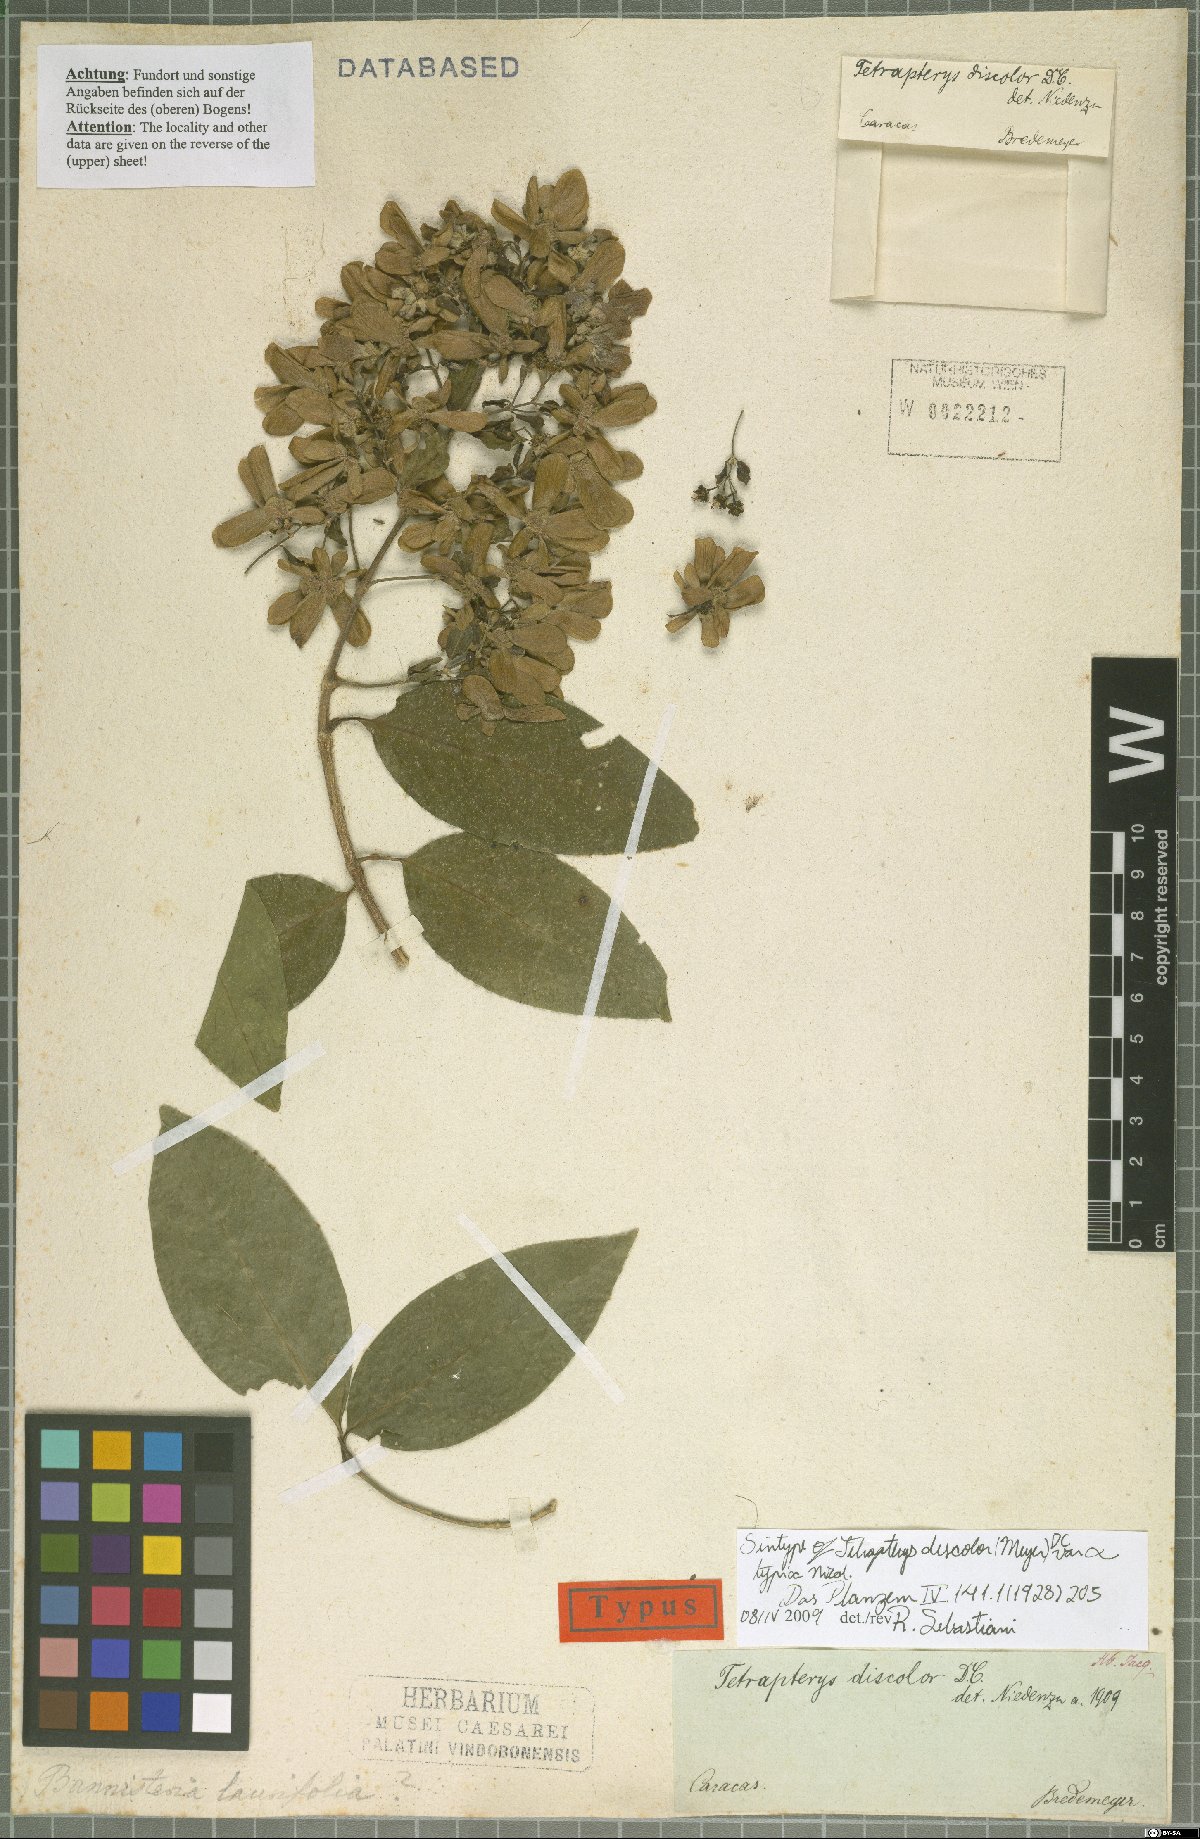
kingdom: Plantae
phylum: Tracheophyta
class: Magnoliopsida
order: Malpighiales
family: Malpighiaceae
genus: Tetrapterys
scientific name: Tetrapterys discolor
